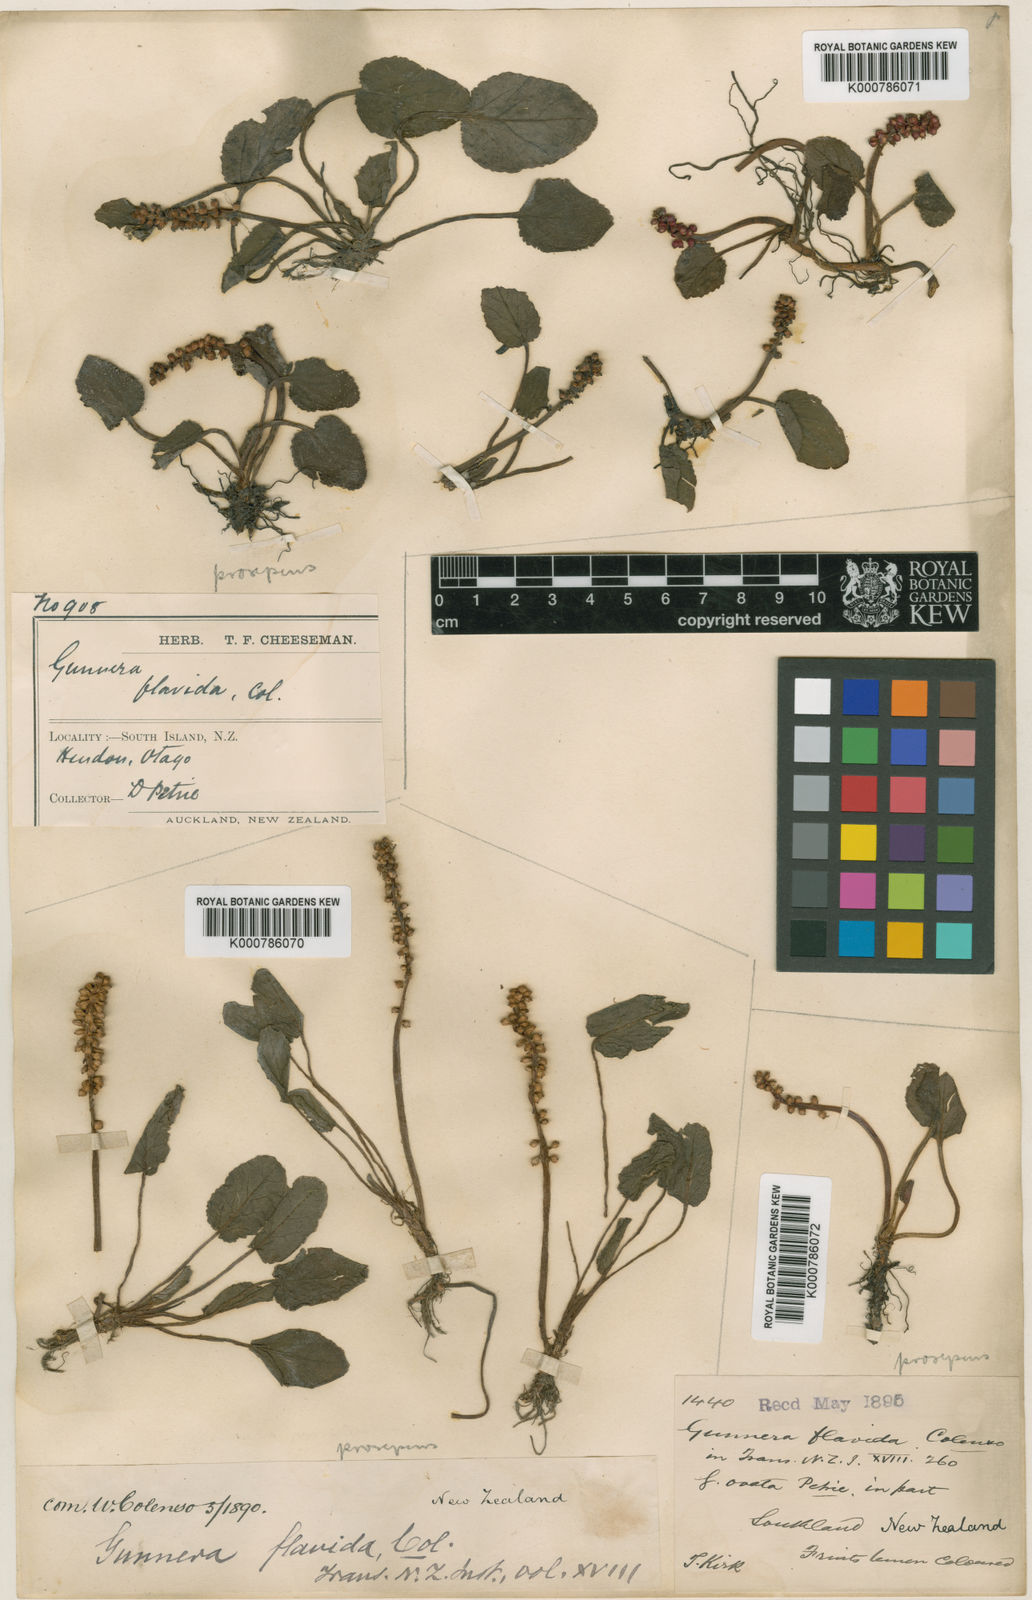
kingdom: Plantae
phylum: Tracheophyta
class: Magnoliopsida
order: Gunnerales
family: Gunneraceae
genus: Gunnera
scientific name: Gunnera prorepens
